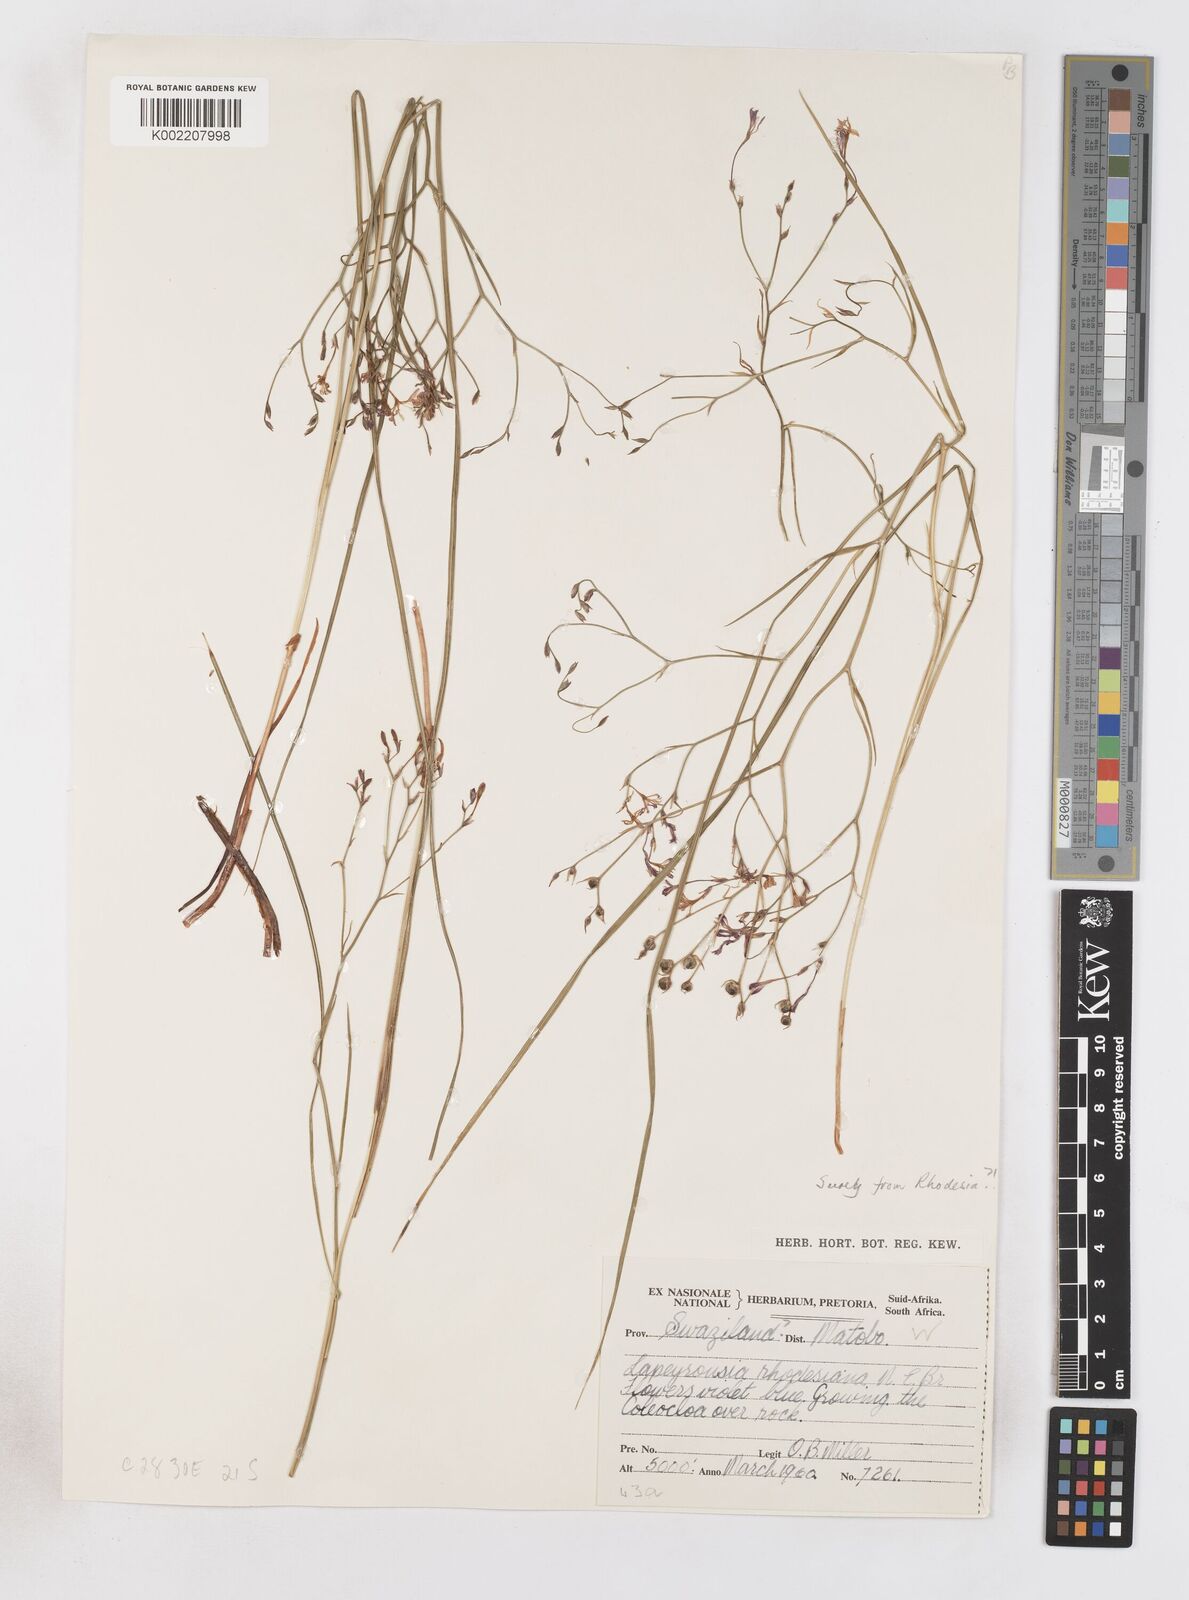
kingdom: Plantae
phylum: Tracheophyta
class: Liliopsida
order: Asparagales
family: Iridaceae
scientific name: Iridaceae
